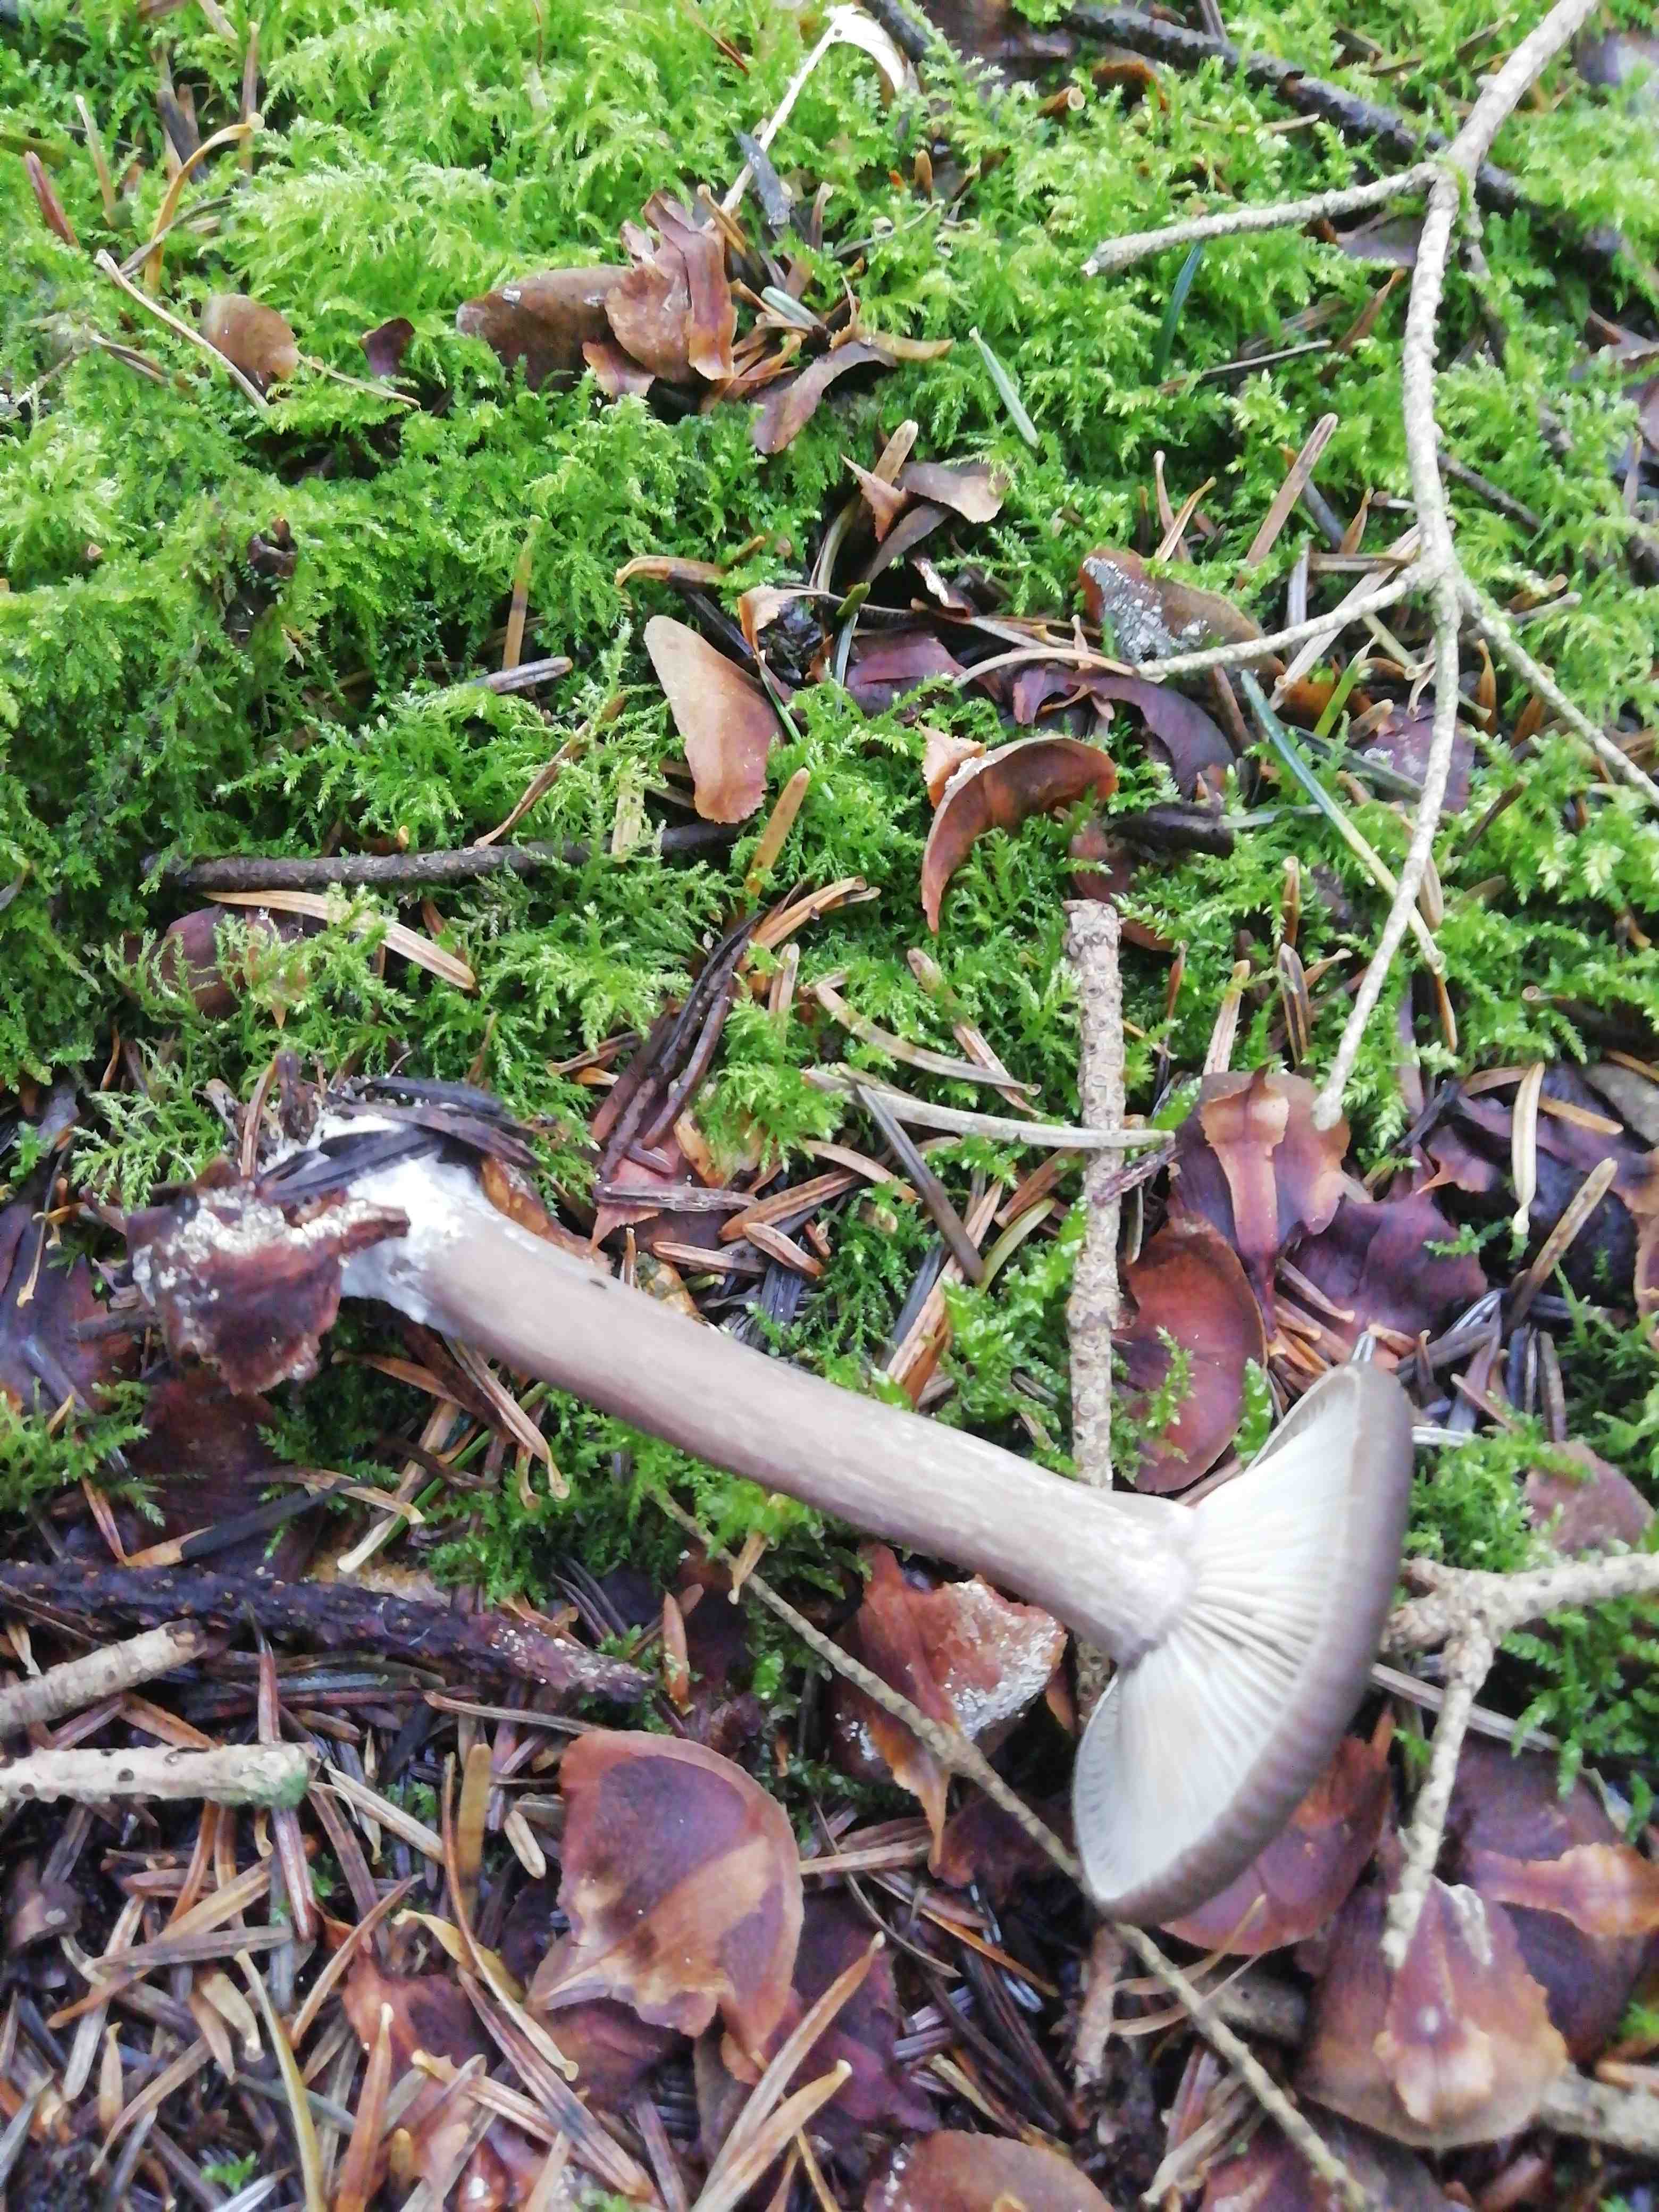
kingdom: Fungi
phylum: Basidiomycota
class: Agaricomycetes
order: Agaricales
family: Pseudoclitocybaceae
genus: Pseudoclitocybe
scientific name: Pseudoclitocybe cyathiformis
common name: almindelig bægertragthat
